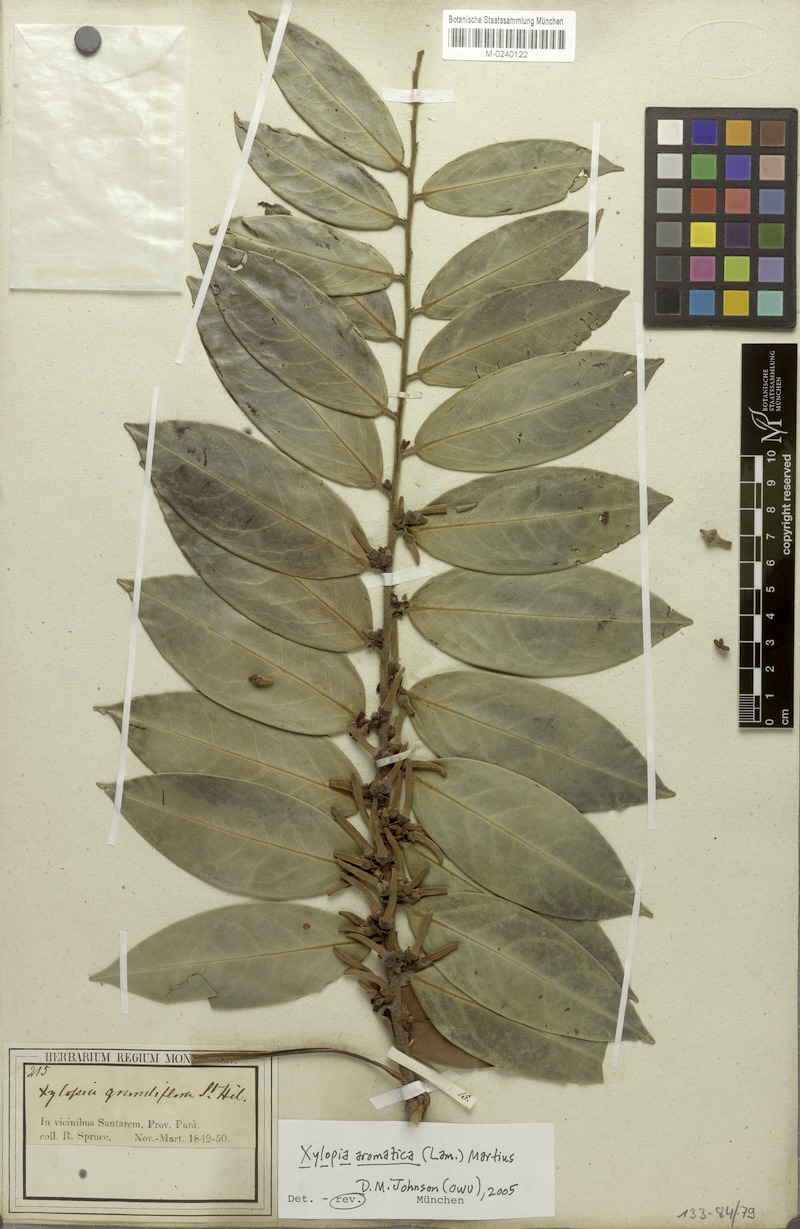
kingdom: Plantae
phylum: Tracheophyta
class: Magnoliopsida
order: Magnoliales
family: Annonaceae
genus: Xylopia
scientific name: Xylopia aromatica
